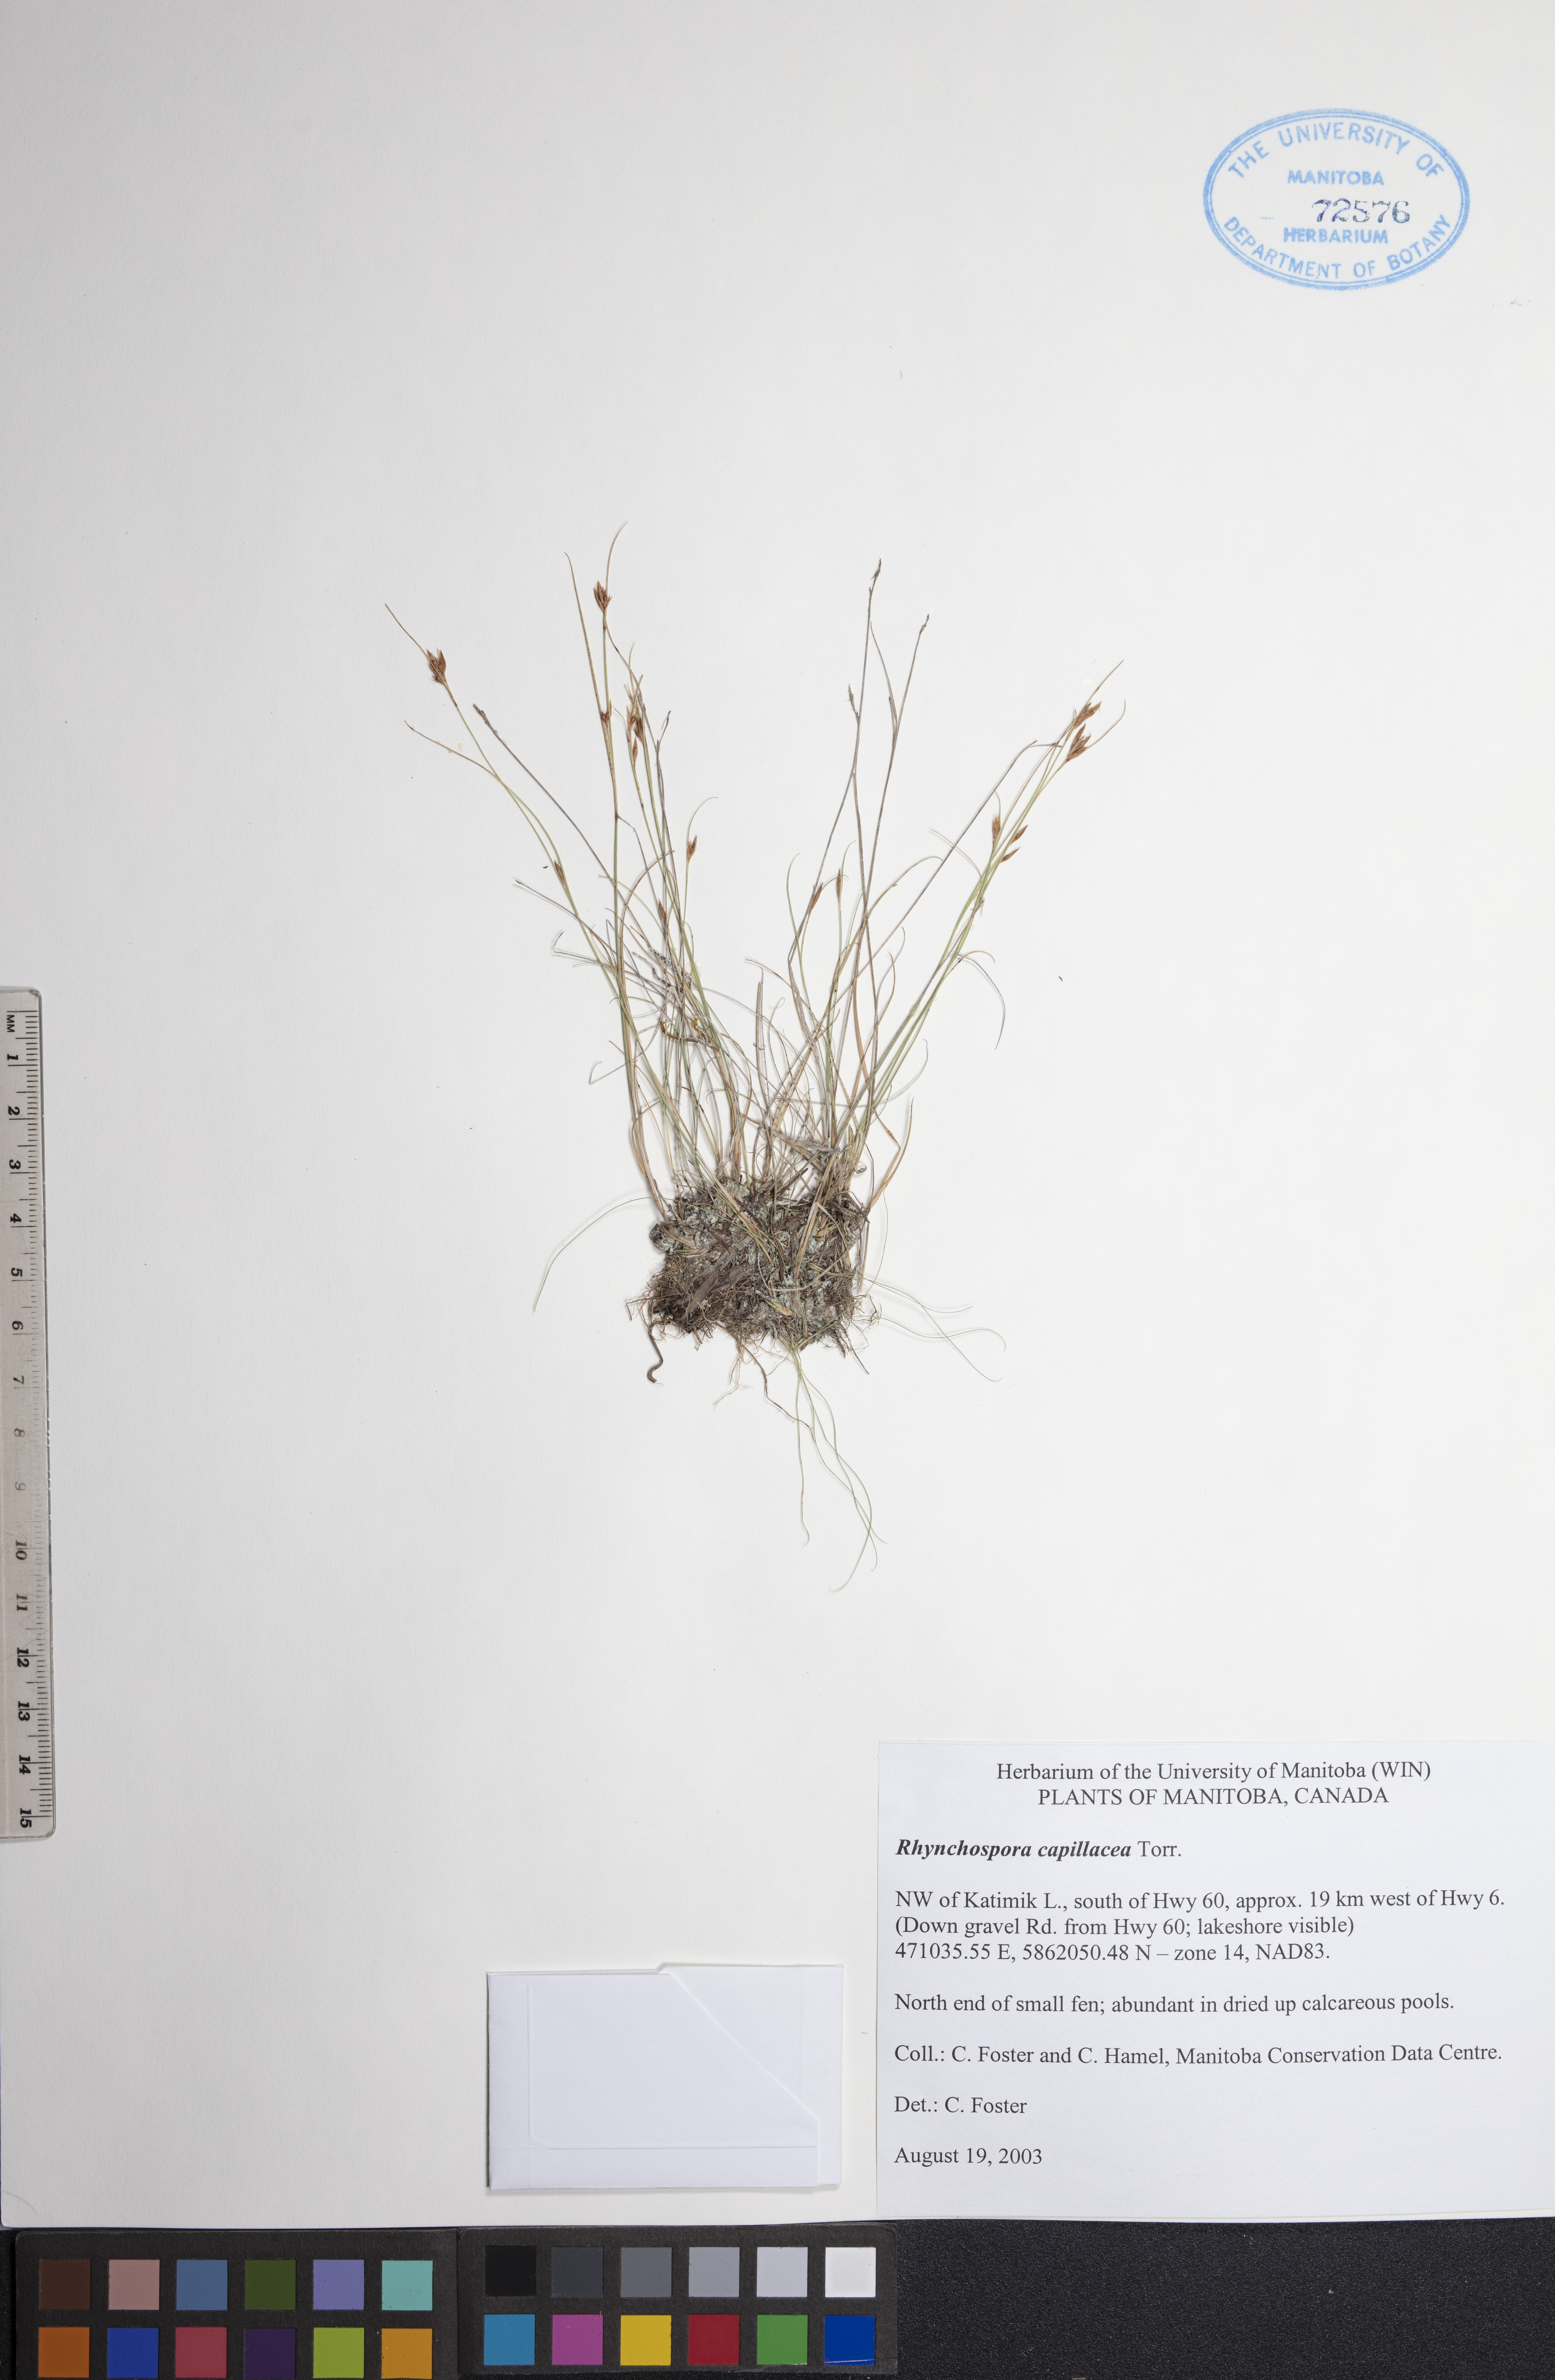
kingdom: Plantae
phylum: Tracheophyta
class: Liliopsida
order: Poales
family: Cyperaceae
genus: Rhynchospora
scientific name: Rhynchospora capillacea
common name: Capillary beakrush
